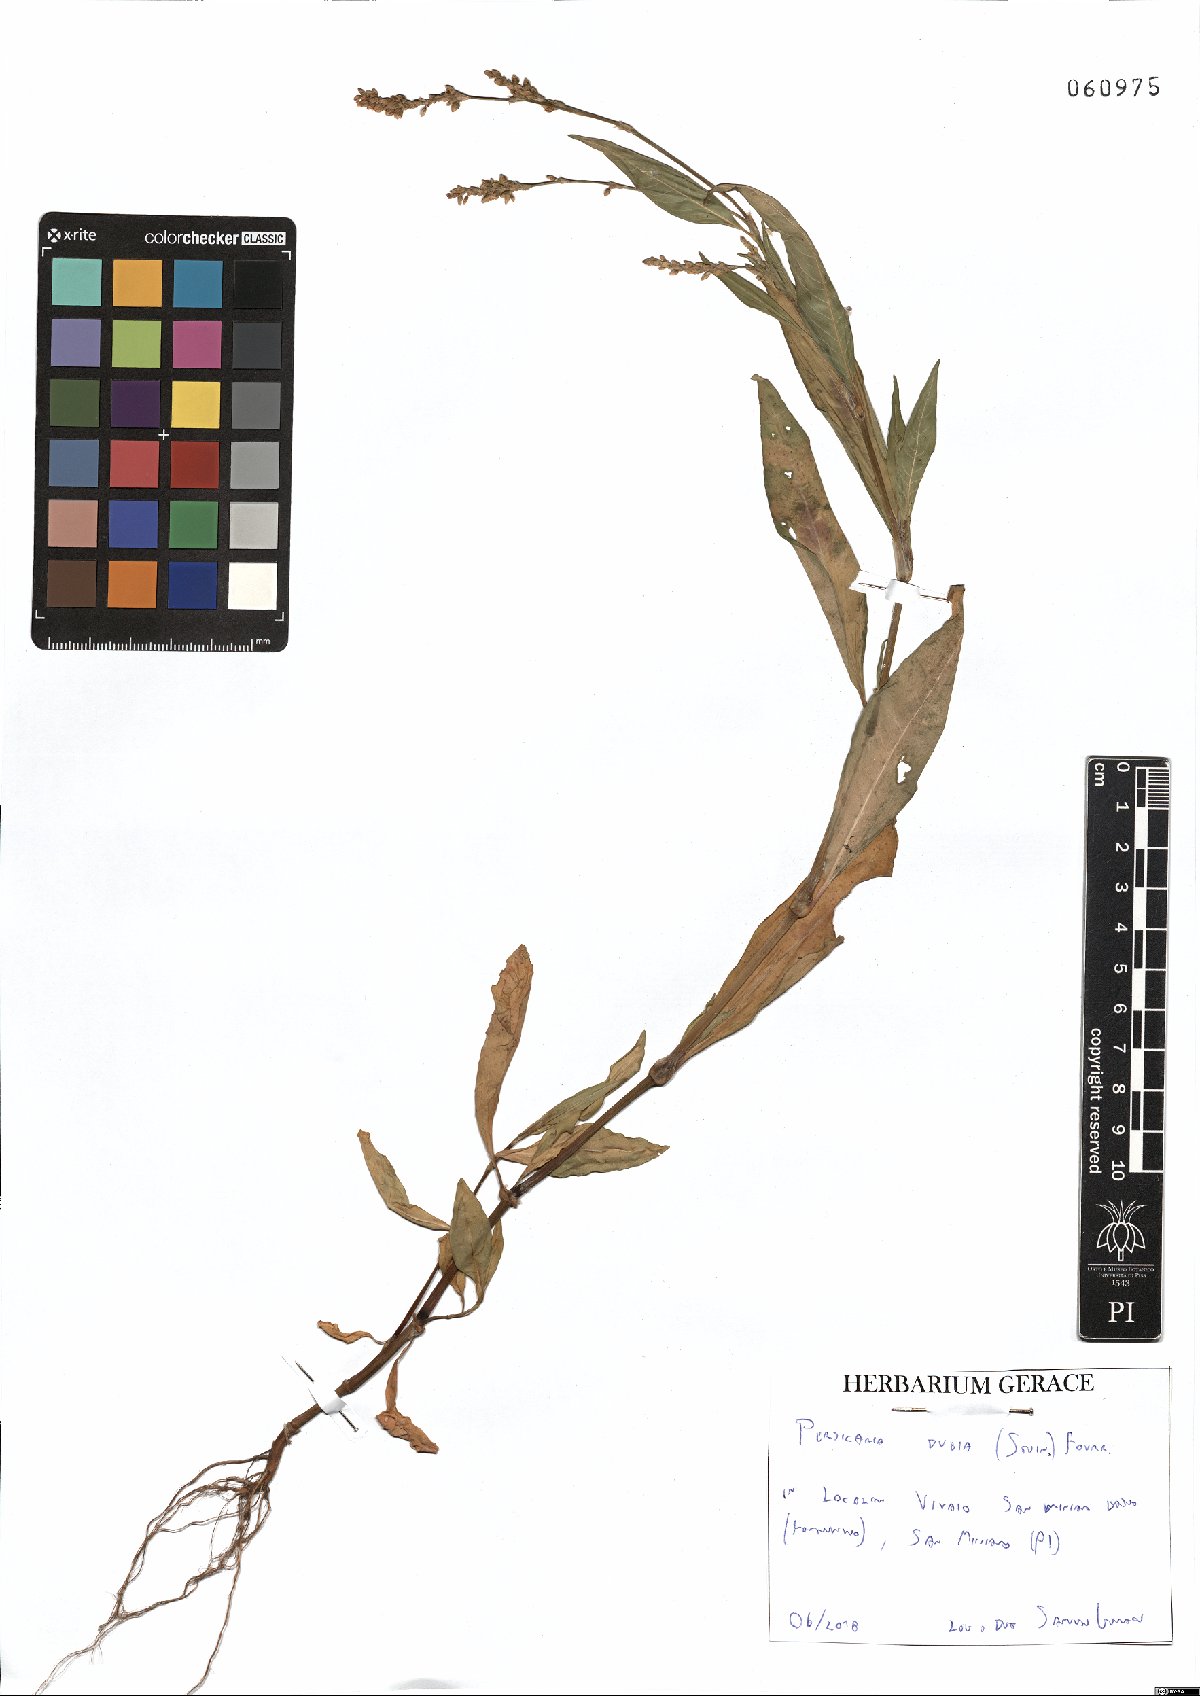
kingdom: Plantae
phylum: Tracheophyta
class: Magnoliopsida
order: Caryophyllales
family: Polygonaceae
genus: Persicaria
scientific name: Persicaria mitis
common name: Tasteless water-pepper
